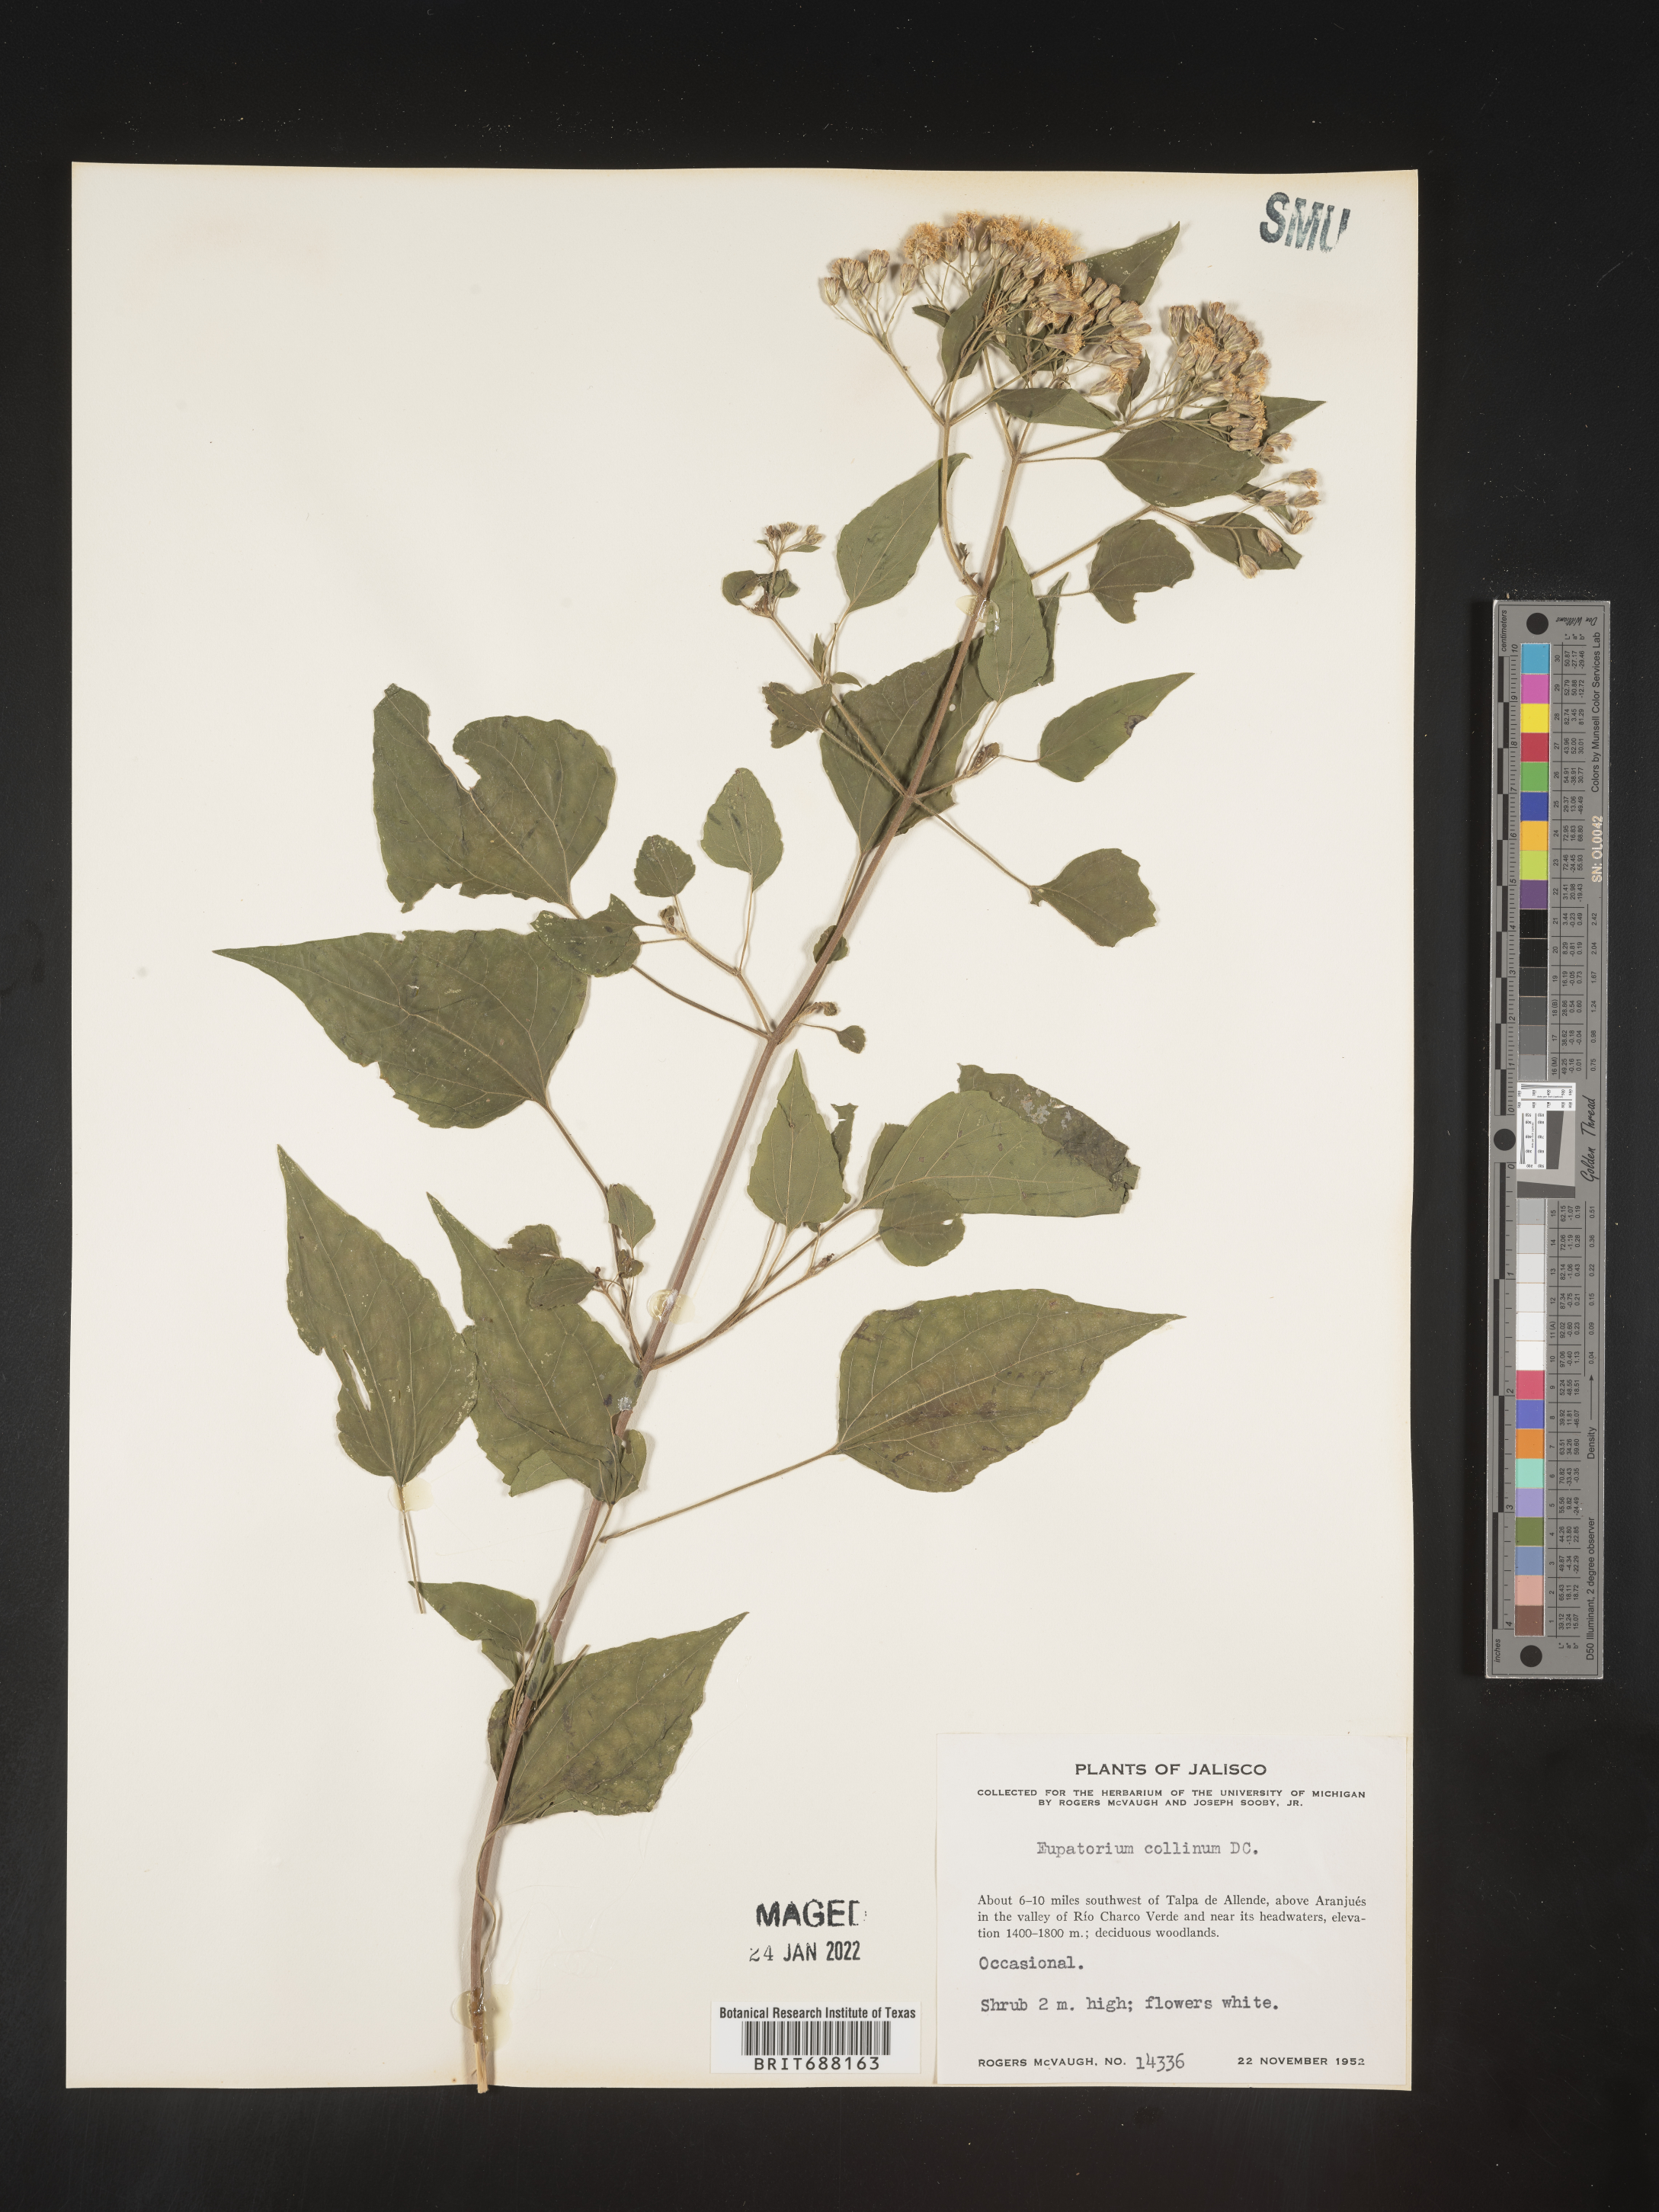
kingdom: Plantae
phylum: Tracheophyta
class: Magnoliopsida
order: Asterales
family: Asteraceae
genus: Chromolaena
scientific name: Chromolaena collina
